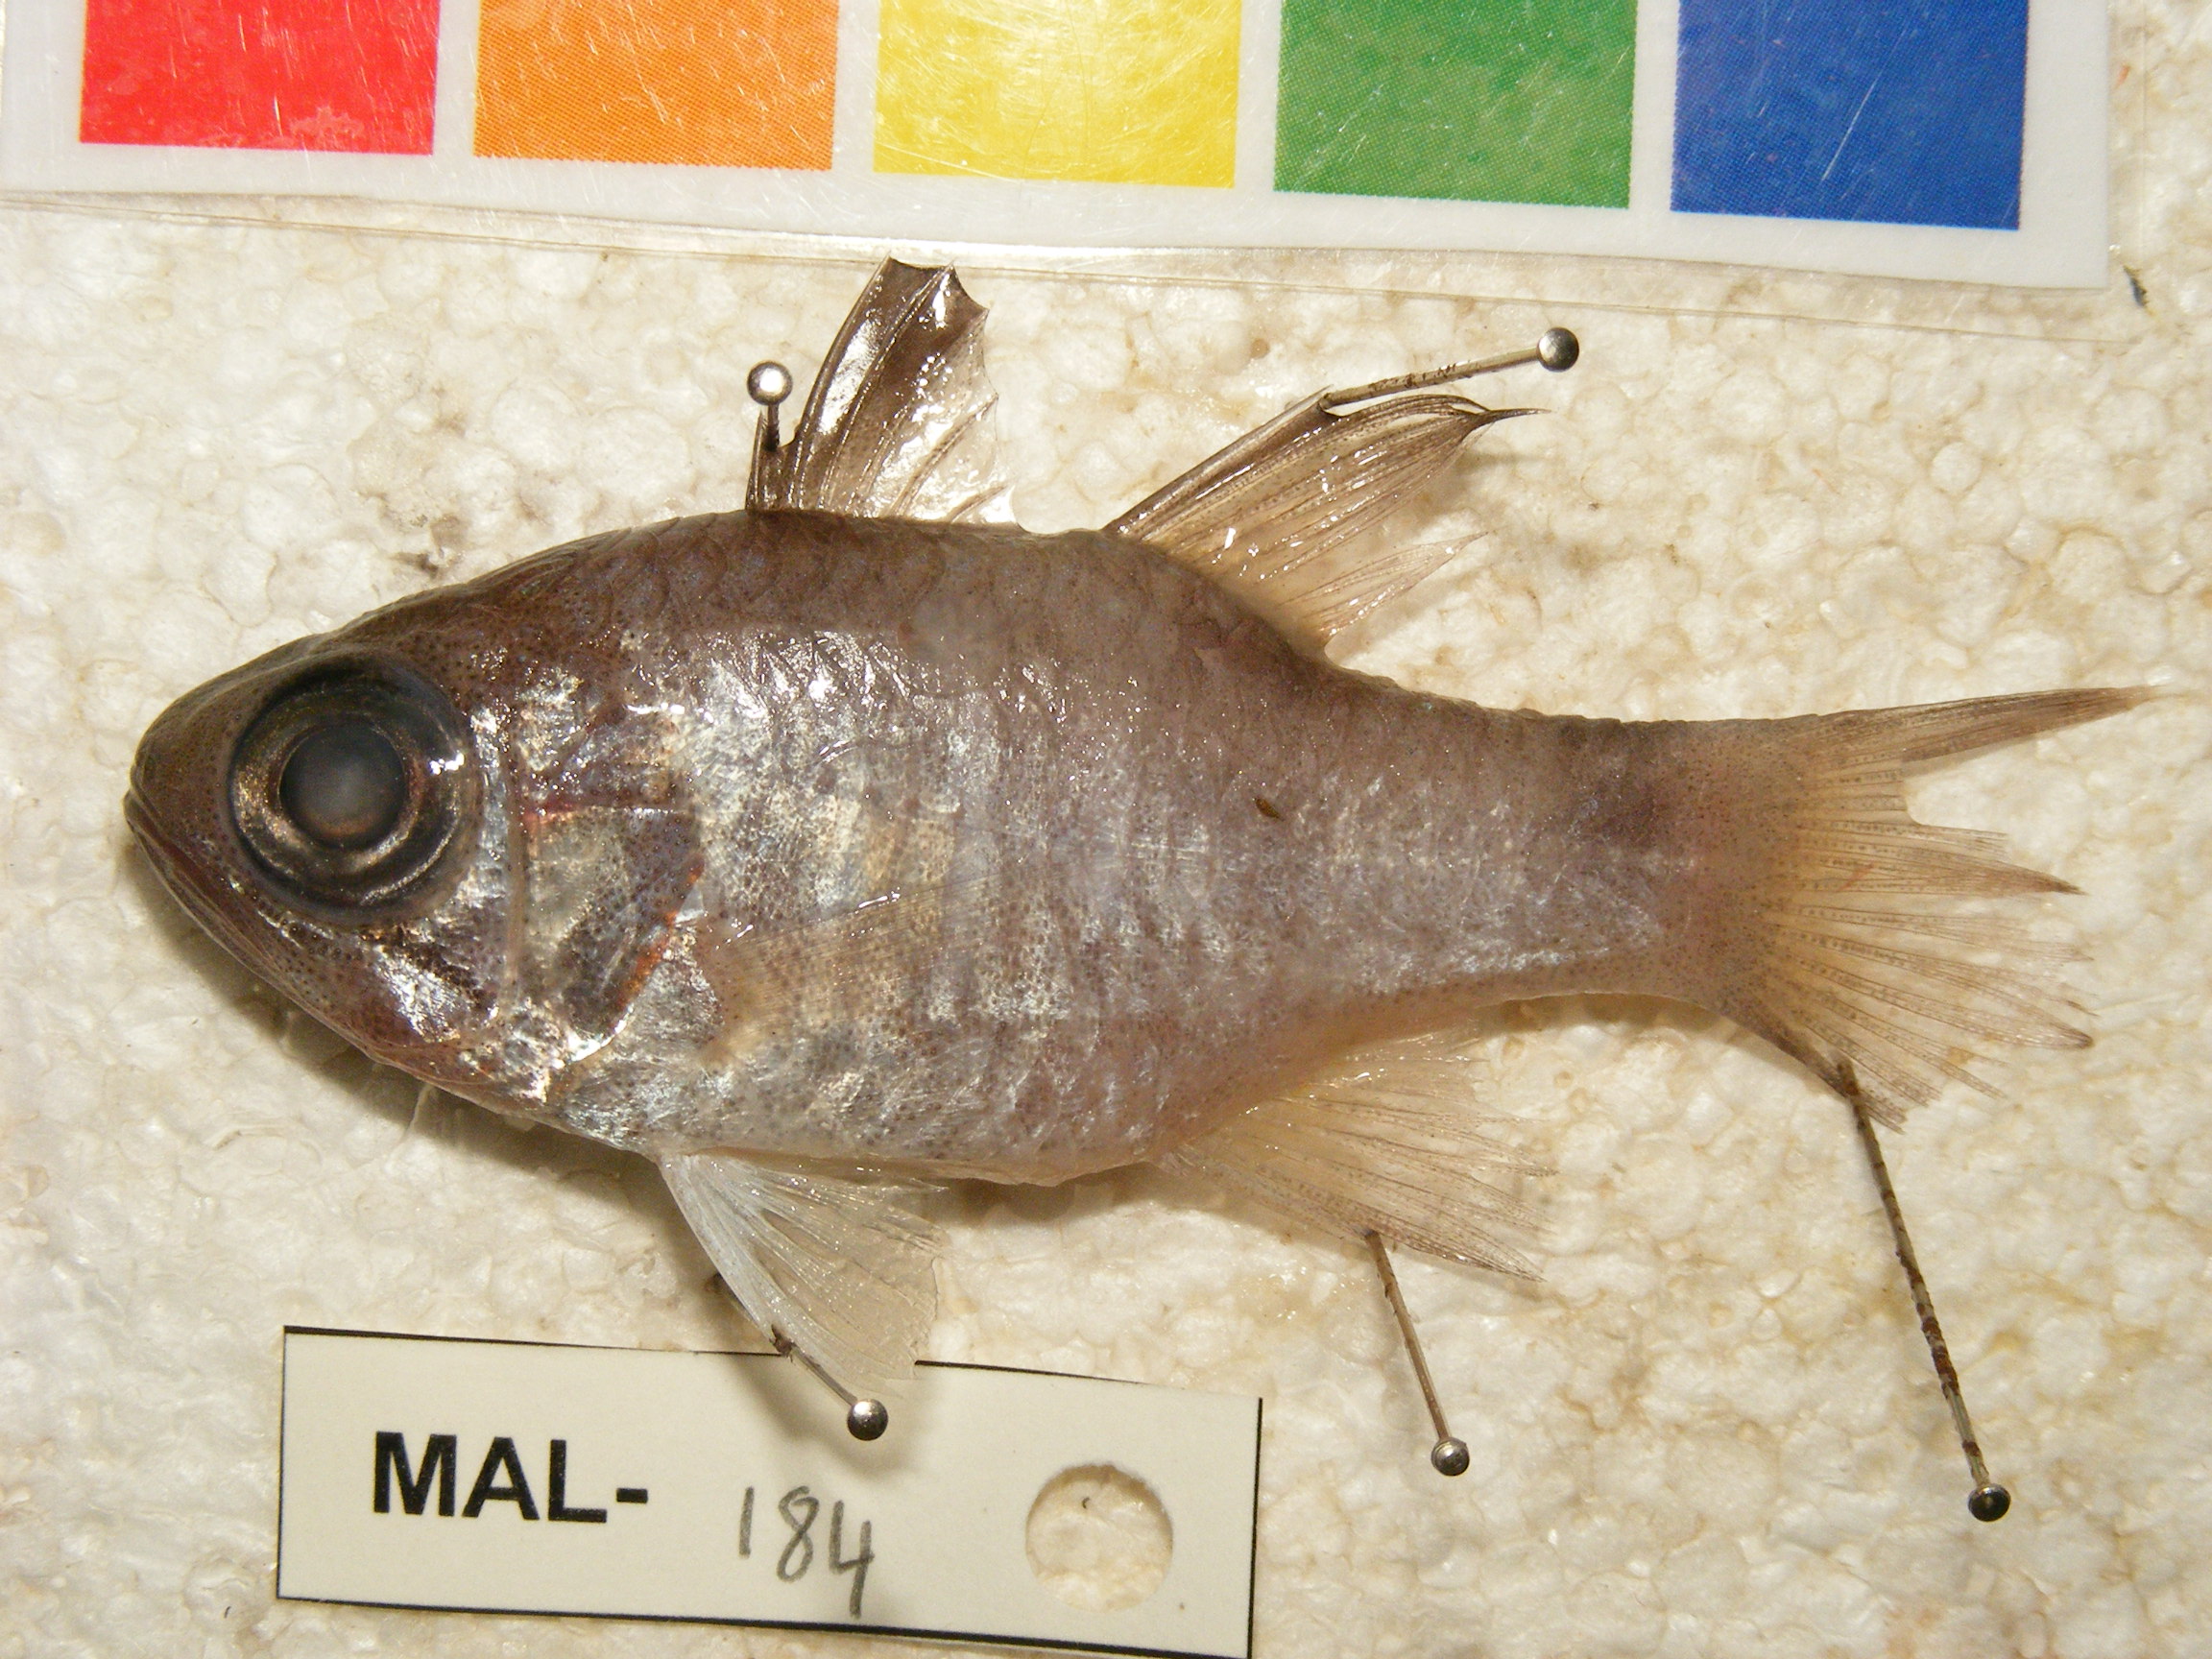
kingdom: Animalia
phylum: Chordata
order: Perciformes
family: Apogonidae
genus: Nectamia
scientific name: Nectamia luxuria
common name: Multi-barred cardinalfish
